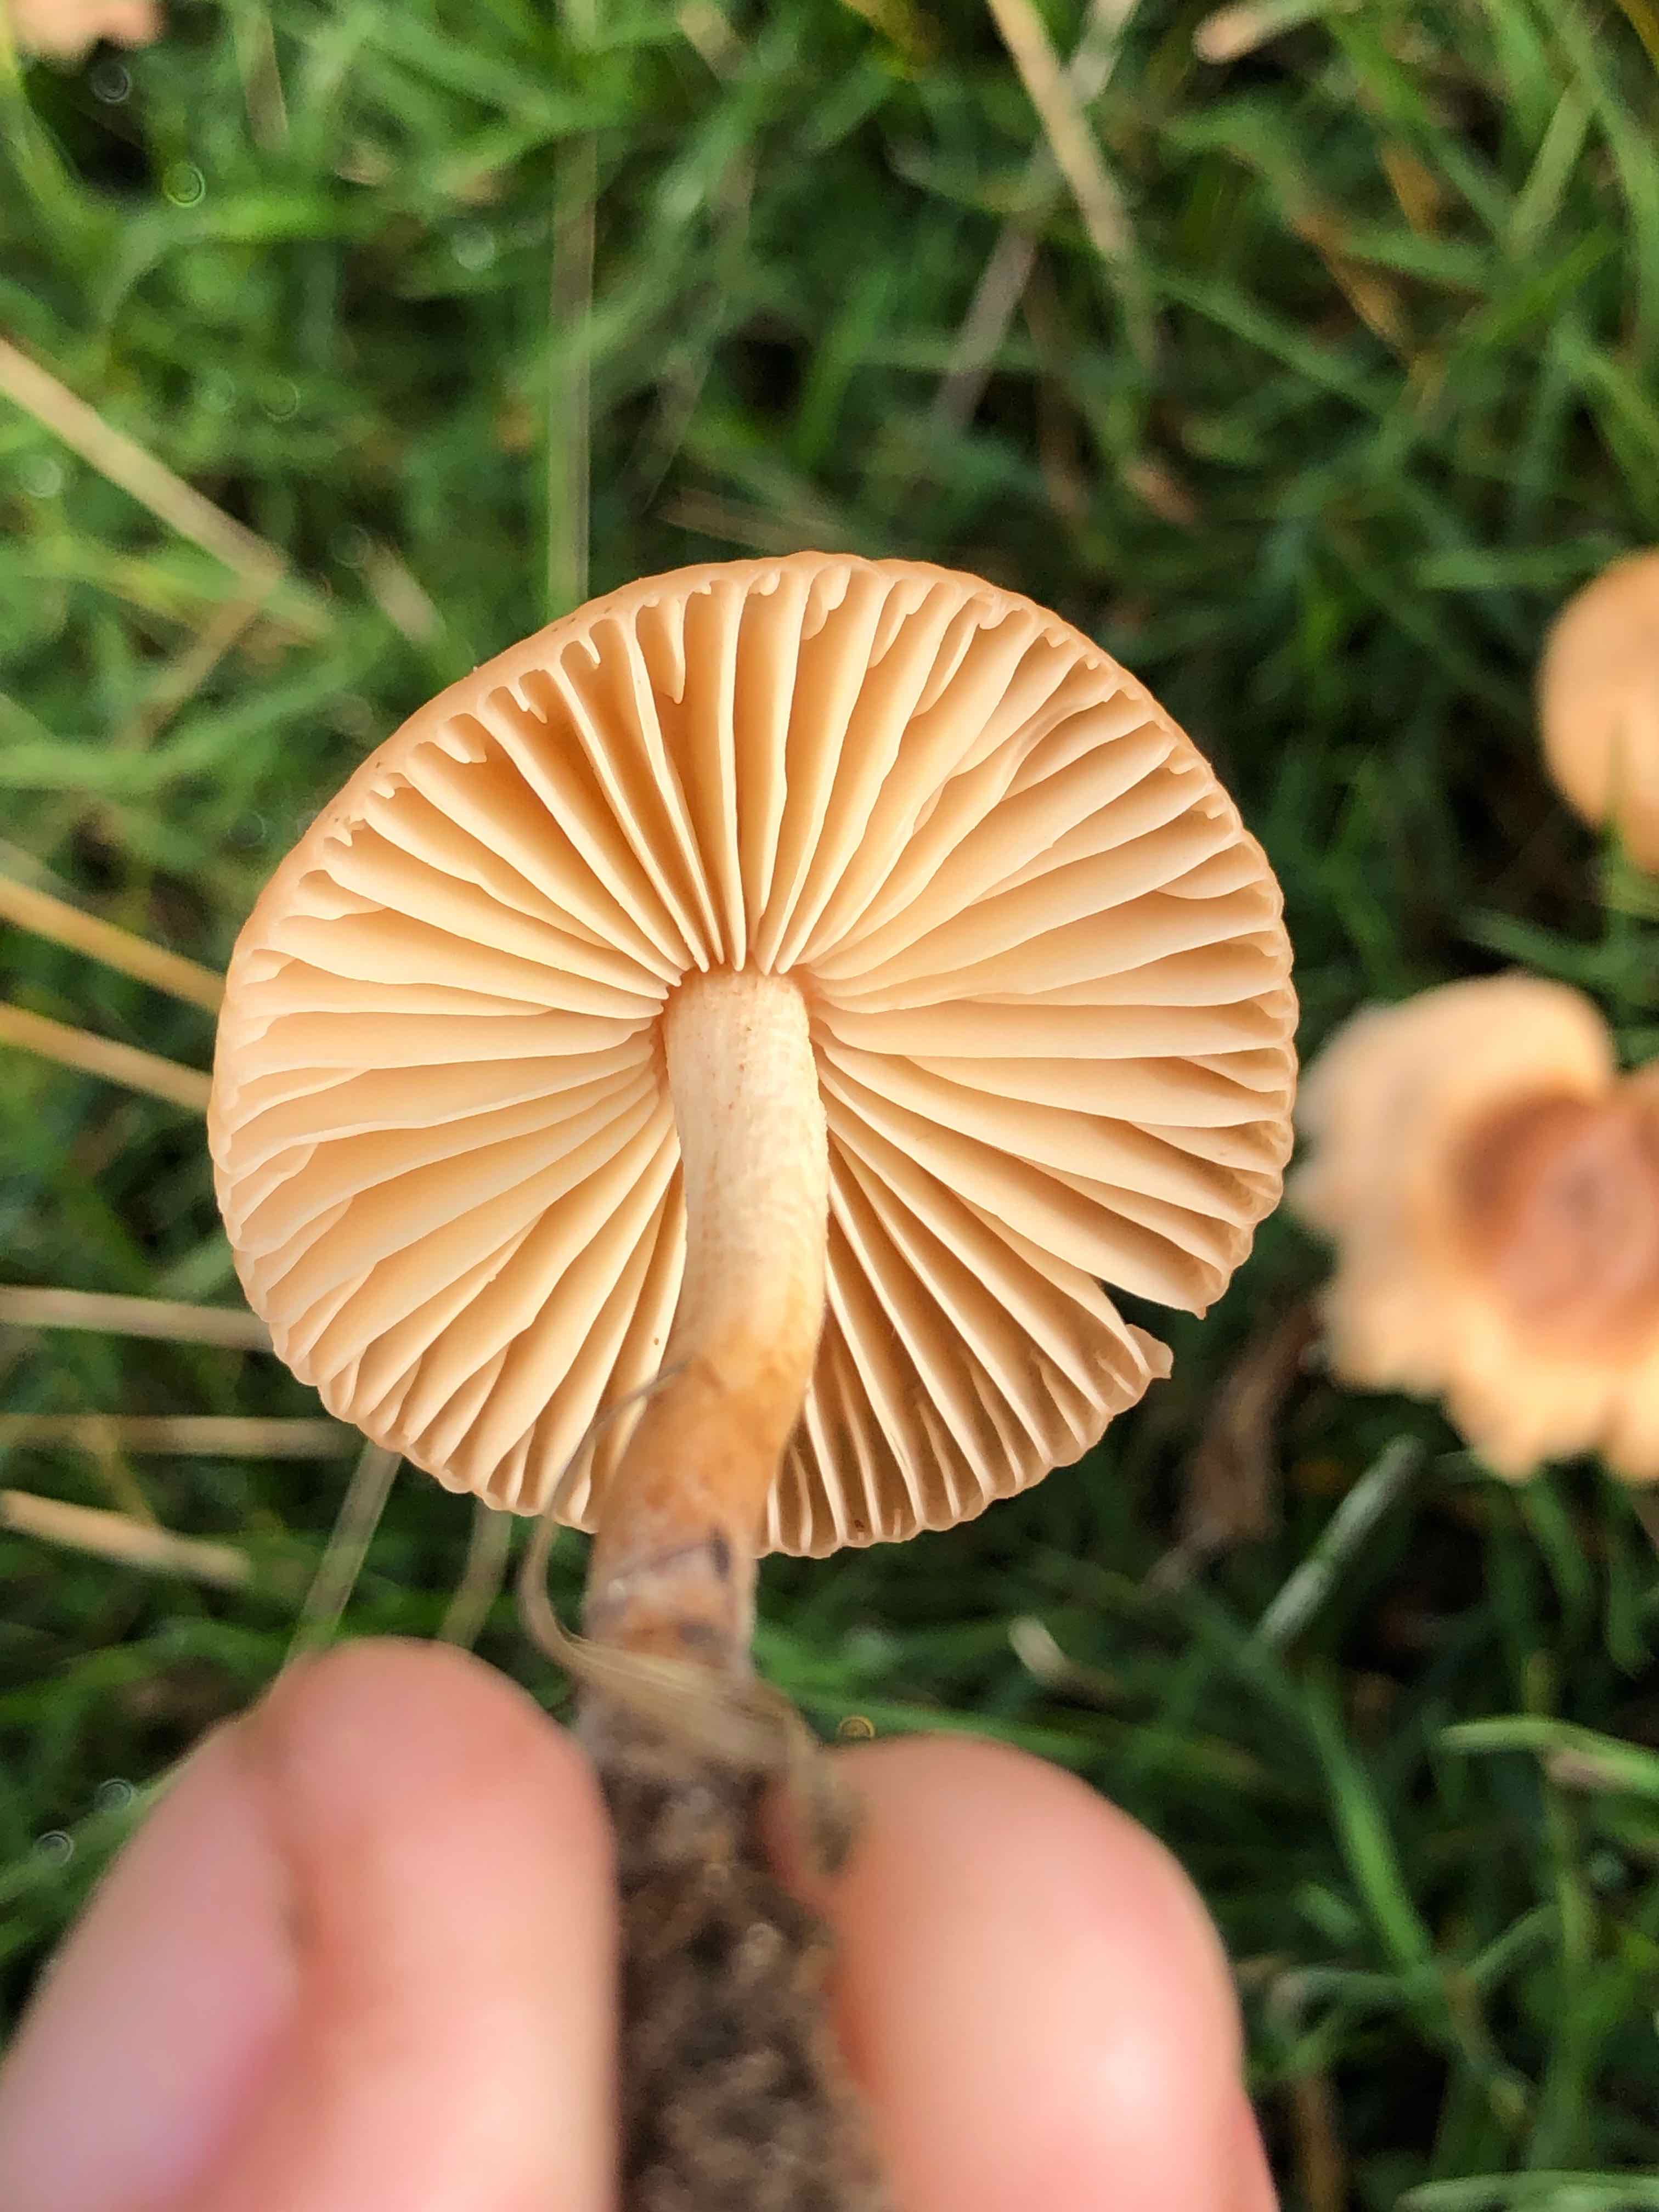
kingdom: Fungi
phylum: Basidiomycota
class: Agaricomycetes
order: Agaricales
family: Marasmiaceae
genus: Marasmius
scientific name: Marasmius oreades
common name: elledans-bruskhat
